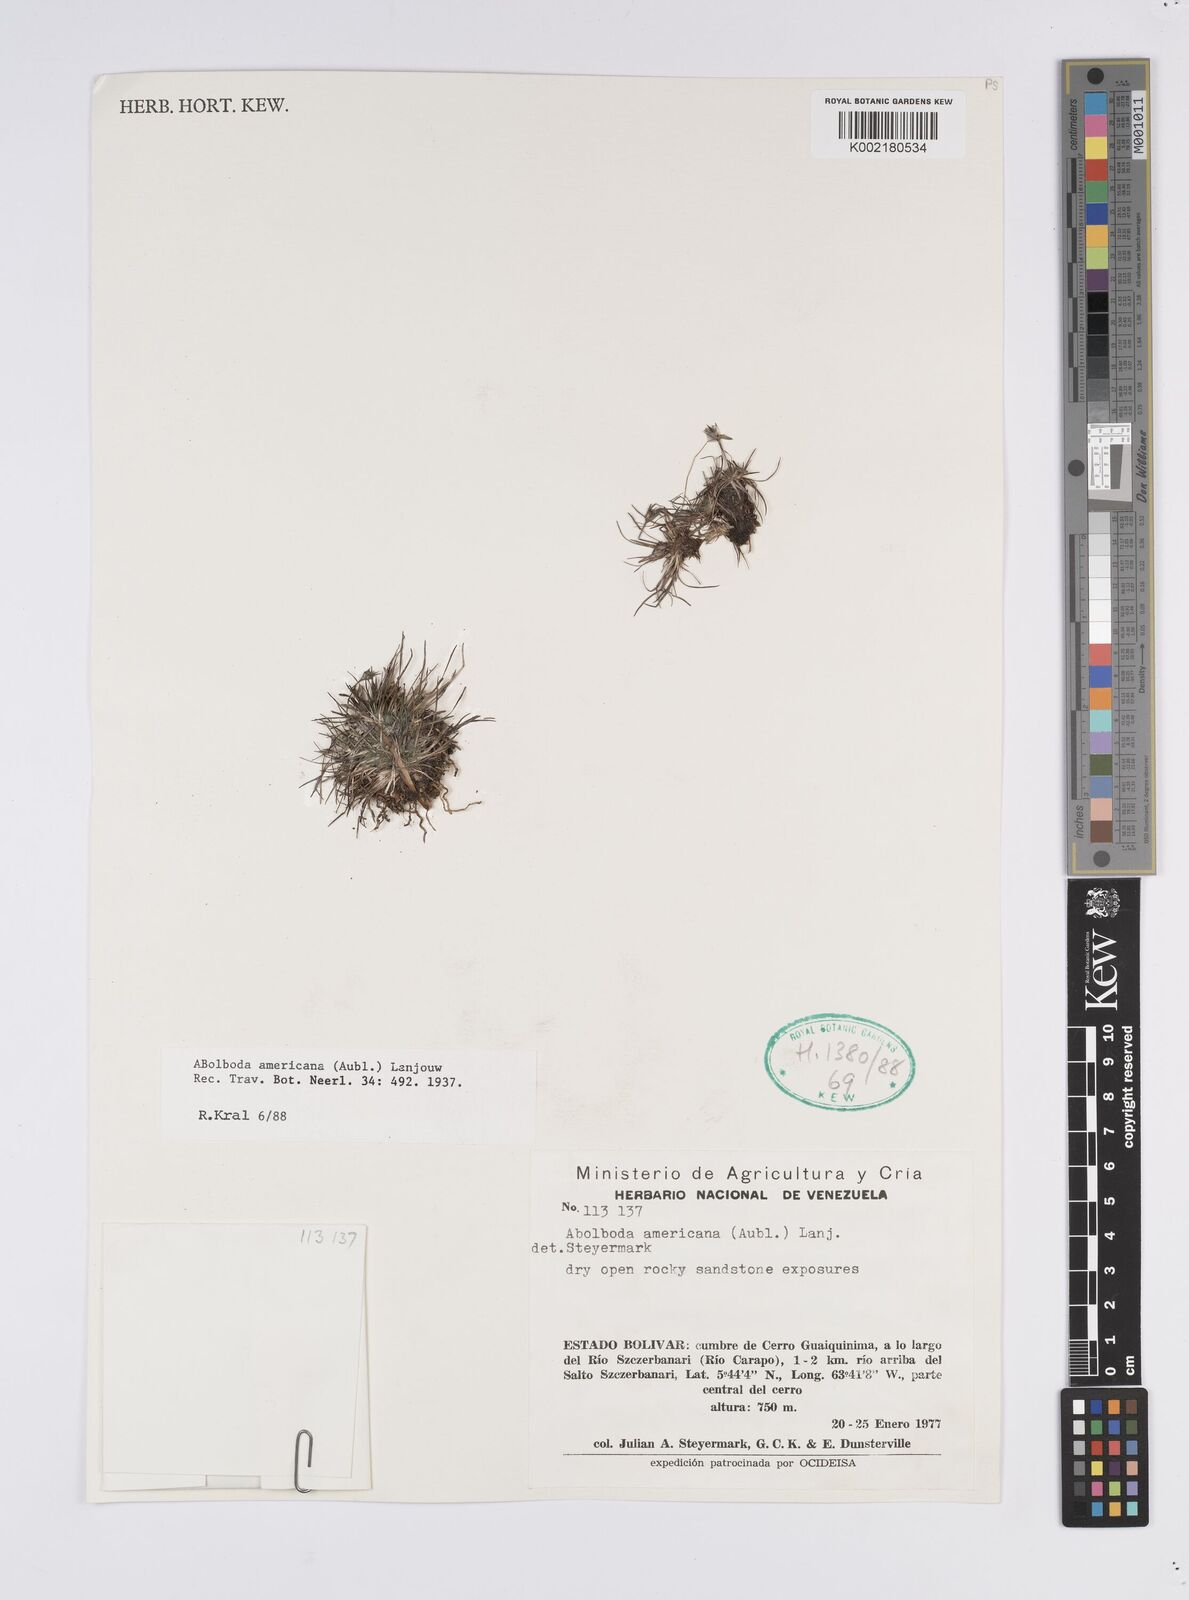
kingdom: Plantae
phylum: Tracheophyta
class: Liliopsida
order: Poales
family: Xyridaceae
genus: Abolboda
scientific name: Abolboda americana
